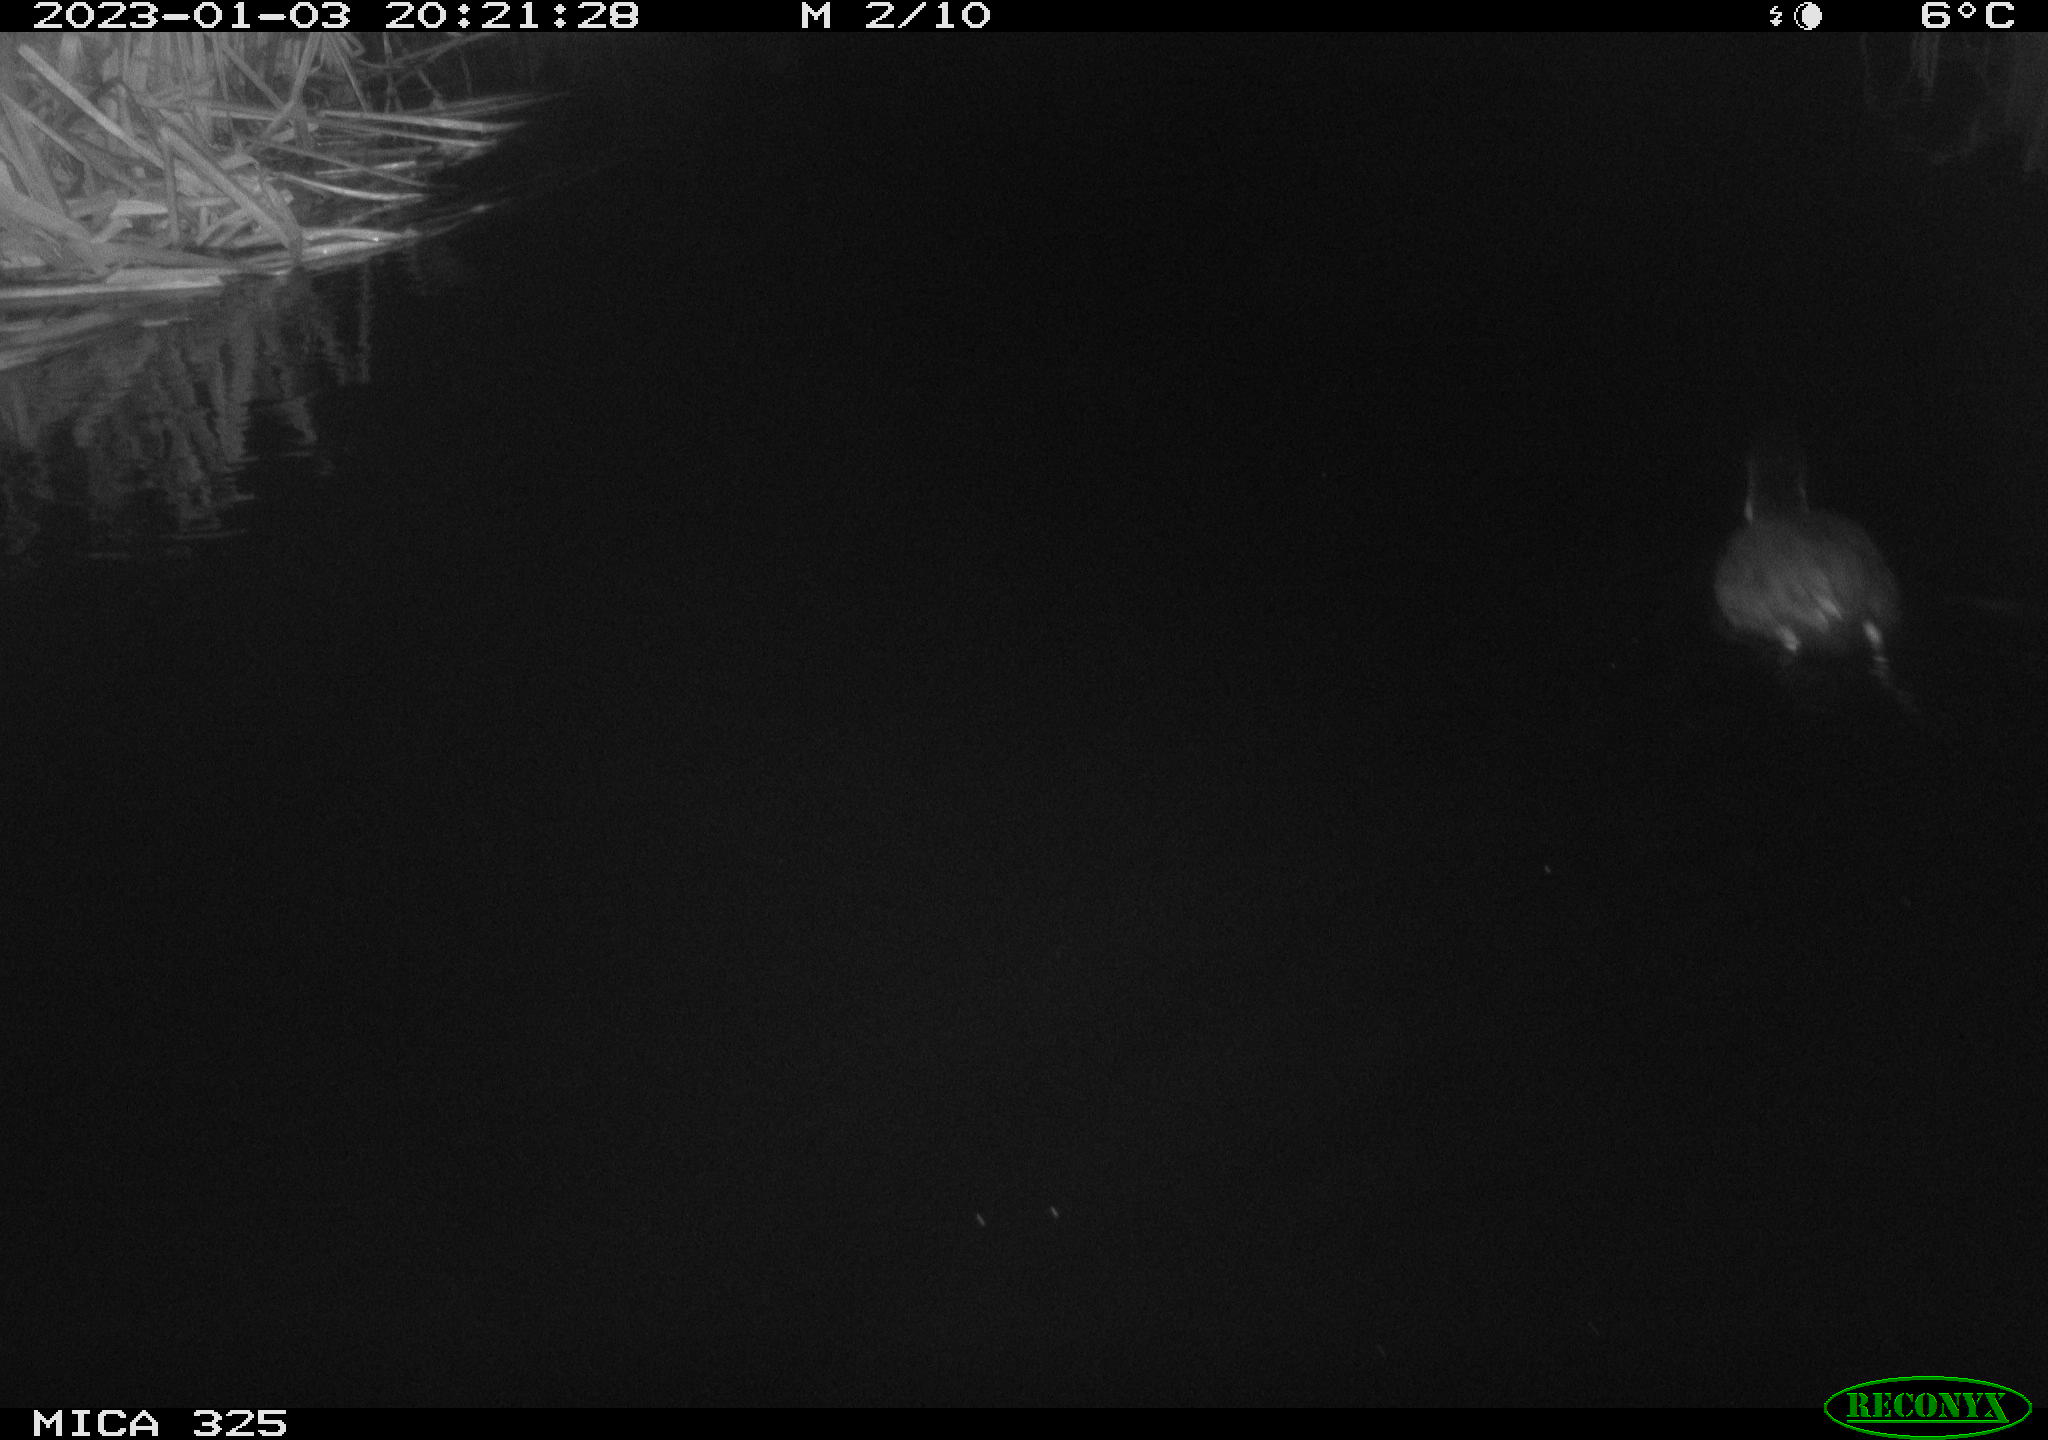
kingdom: Animalia
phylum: Chordata
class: Aves
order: Gruiformes
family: Rallidae
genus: Fulica
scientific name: Fulica atra
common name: Eurasian coot
